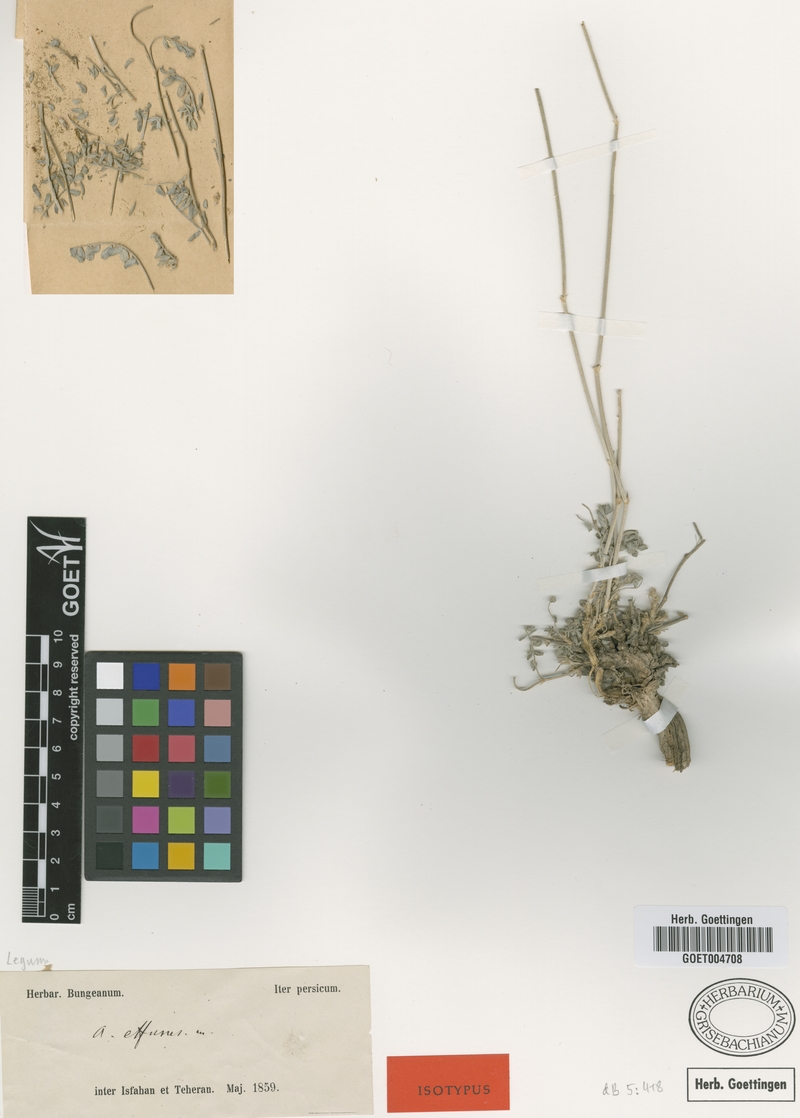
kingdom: Plantae
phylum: Tracheophyta
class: Magnoliopsida
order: Fabales
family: Fabaceae
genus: Astragalus
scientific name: Astragalus effusus
